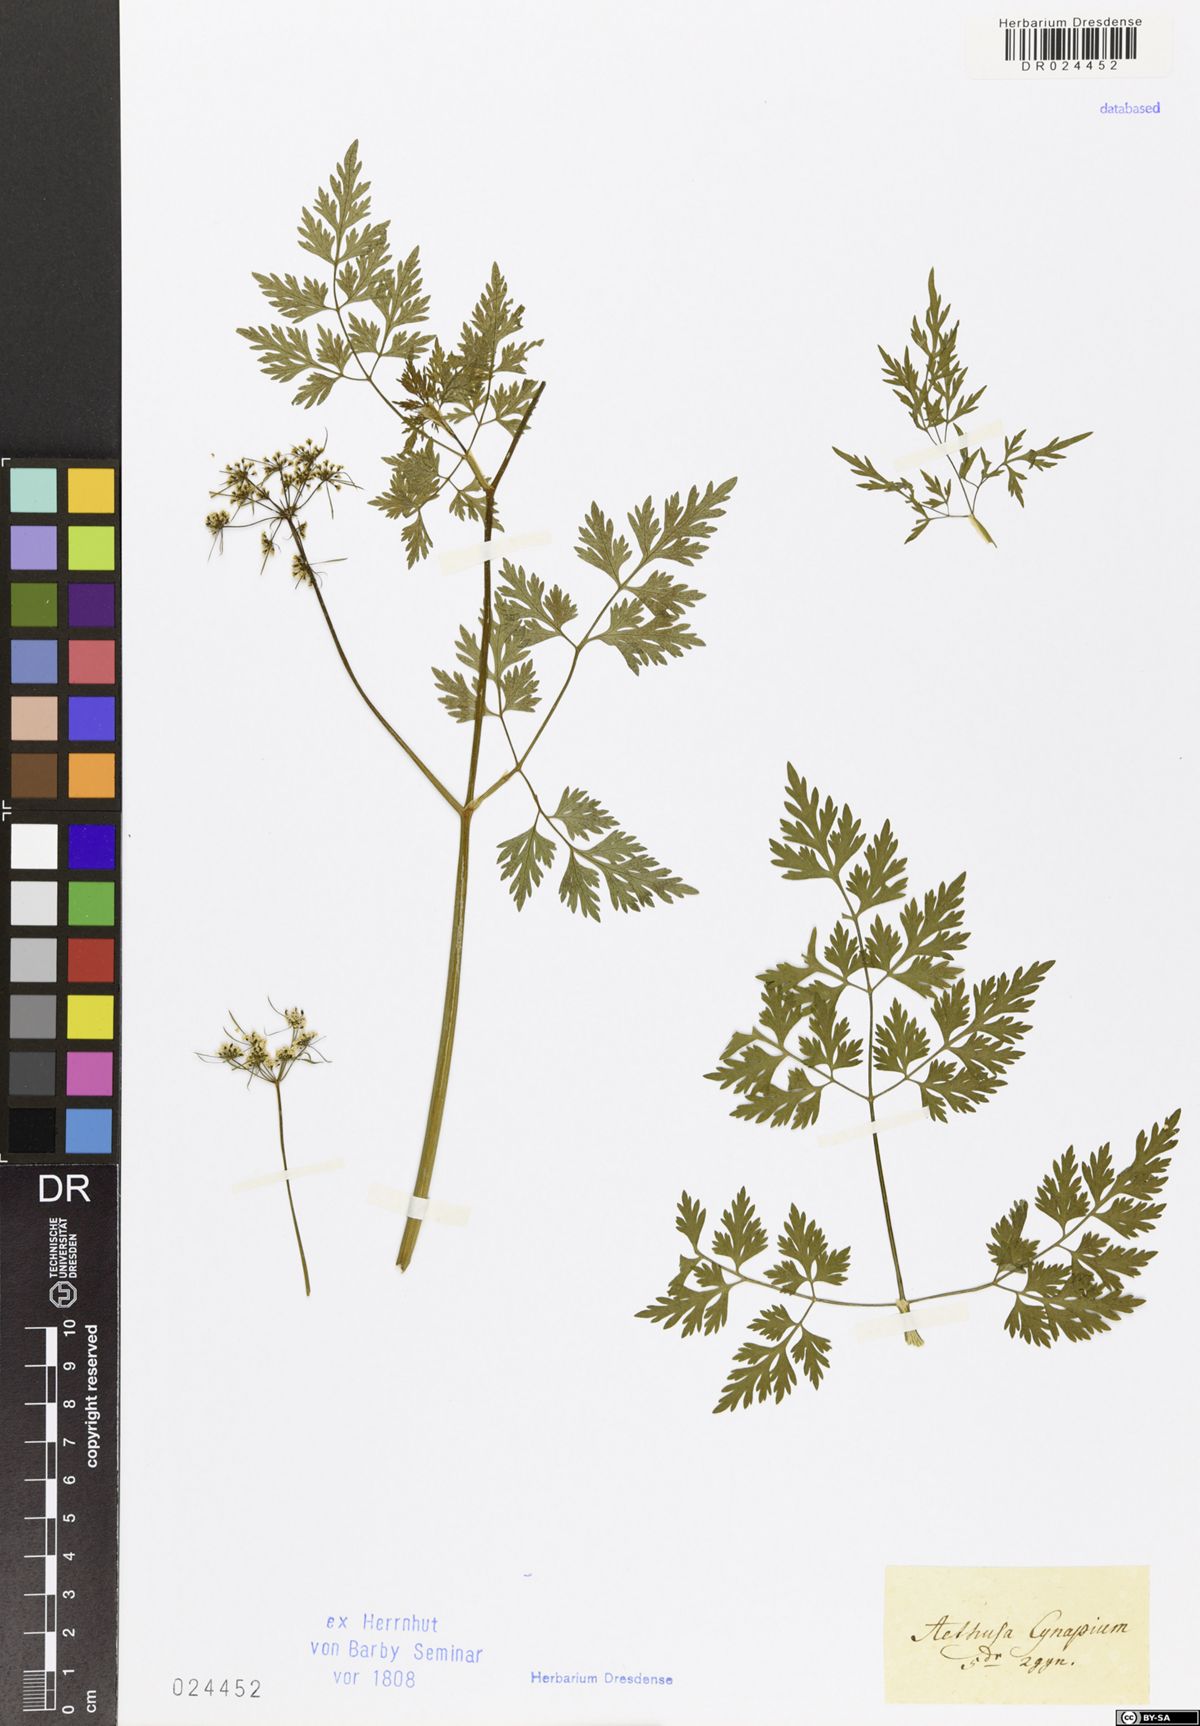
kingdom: Plantae
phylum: Tracheophyta
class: Magnoliopsida
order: Apiales
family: Apiaceae
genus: Aethusa
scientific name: Aethusa cynapium
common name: Fool's parsley
